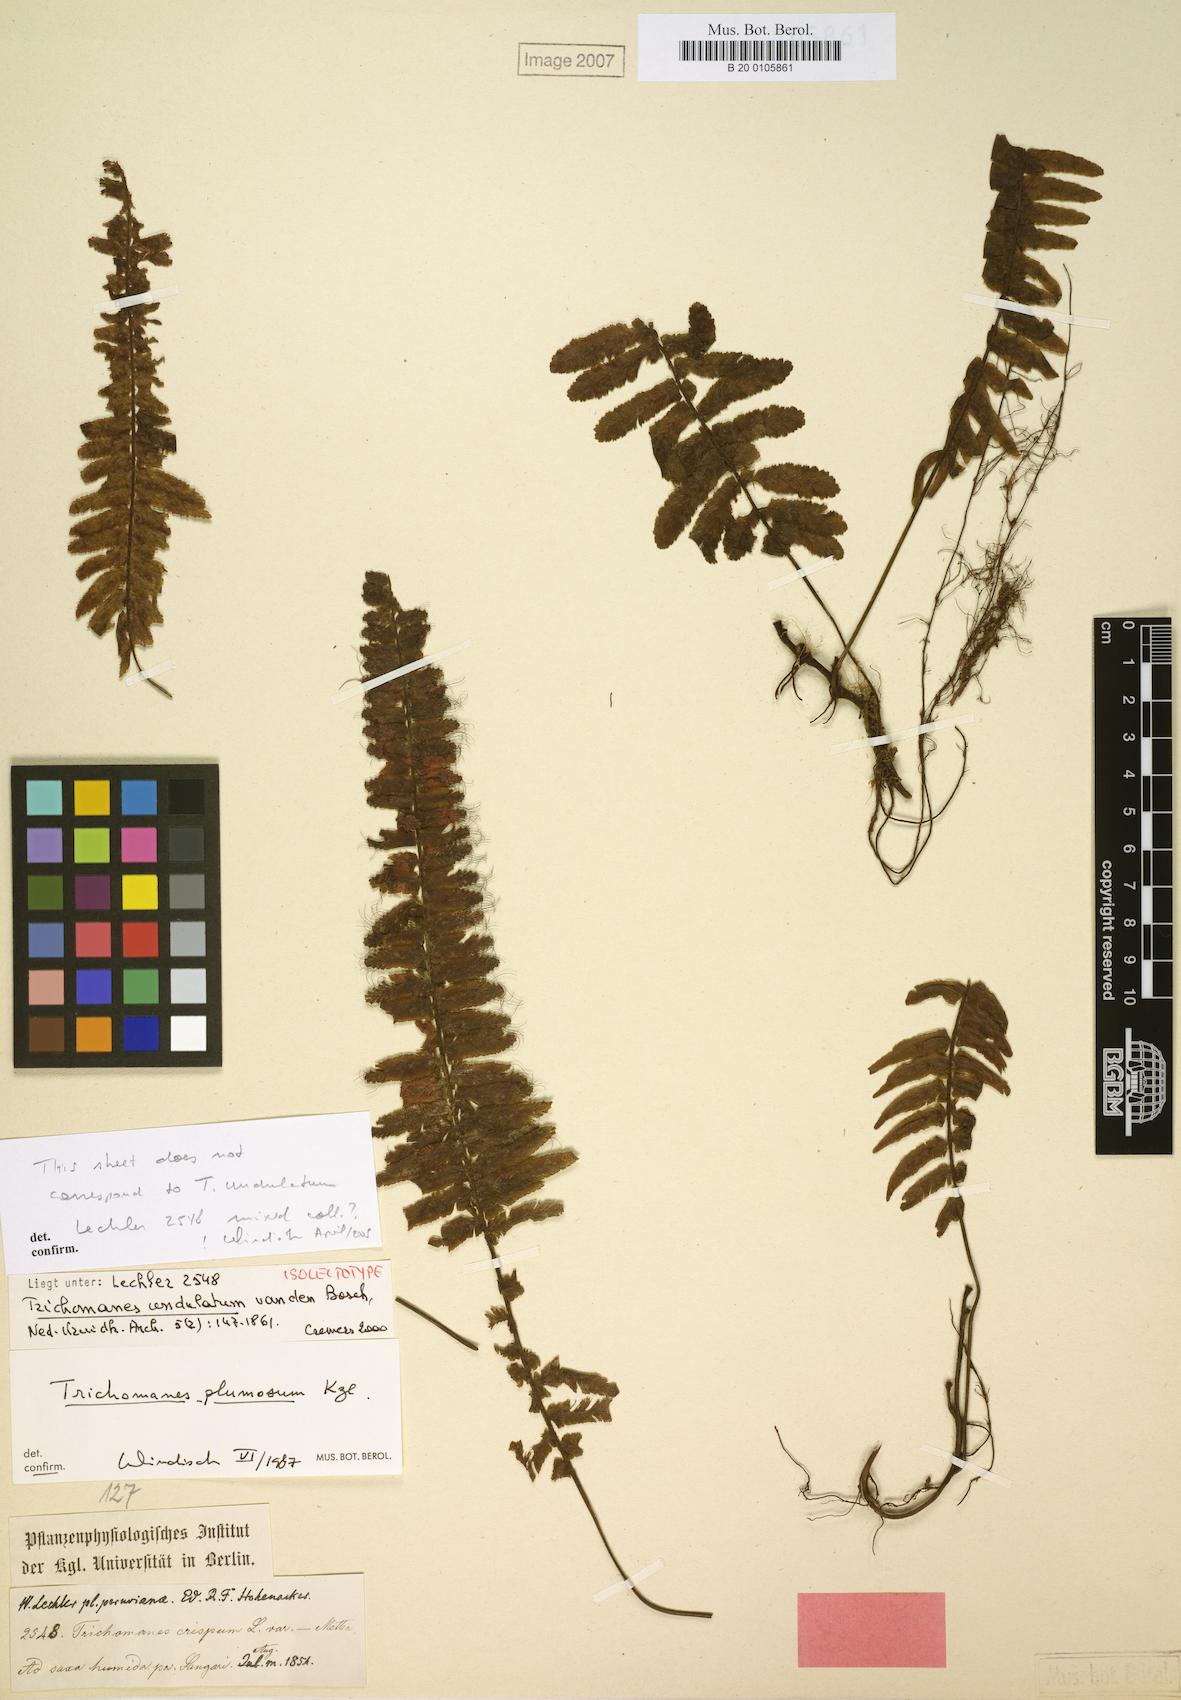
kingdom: Plantae
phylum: Tracheophyta
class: Polypodiopsida
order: Hymenophyllales
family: Hymenophyllaceae
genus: Trichomanes
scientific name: Trichomanes vandenboschii
